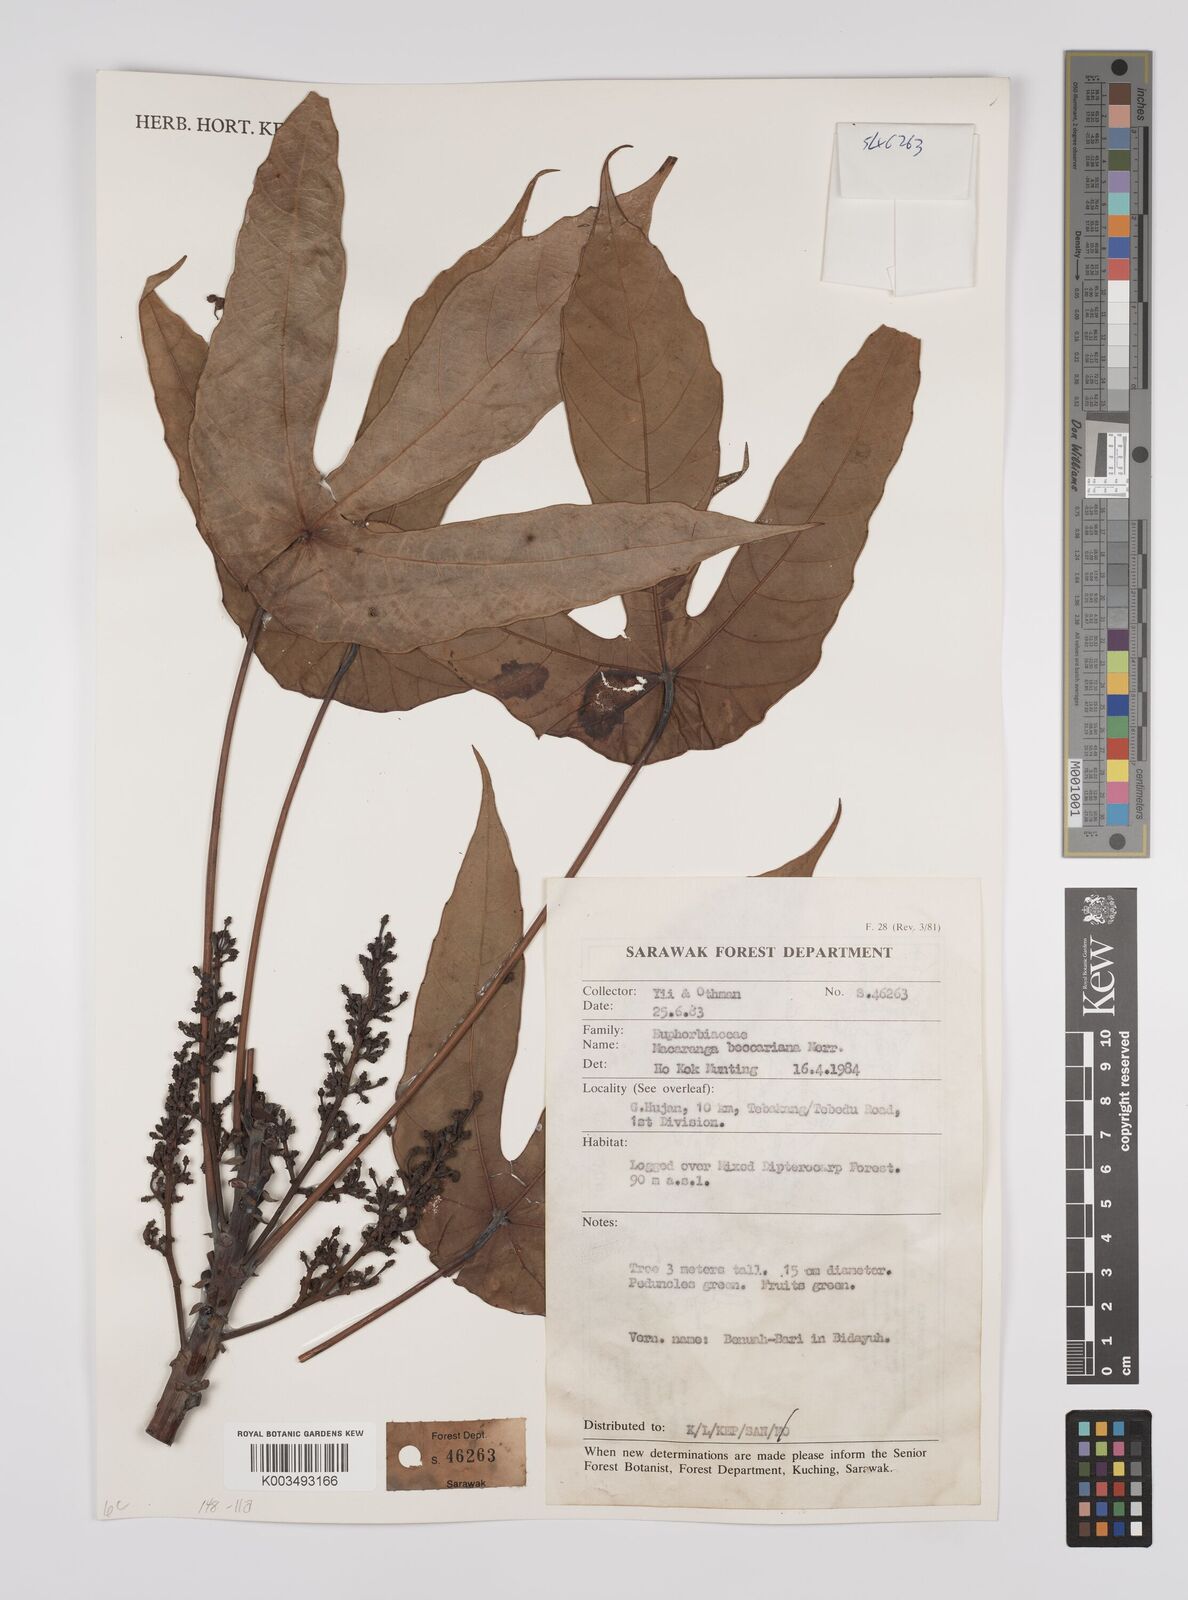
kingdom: Plantae
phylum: Tracheophyta
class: Magnoliopsida
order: Malpighiales
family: Euphorbiaceae
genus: Macaranga
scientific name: Macaranga beccariana
